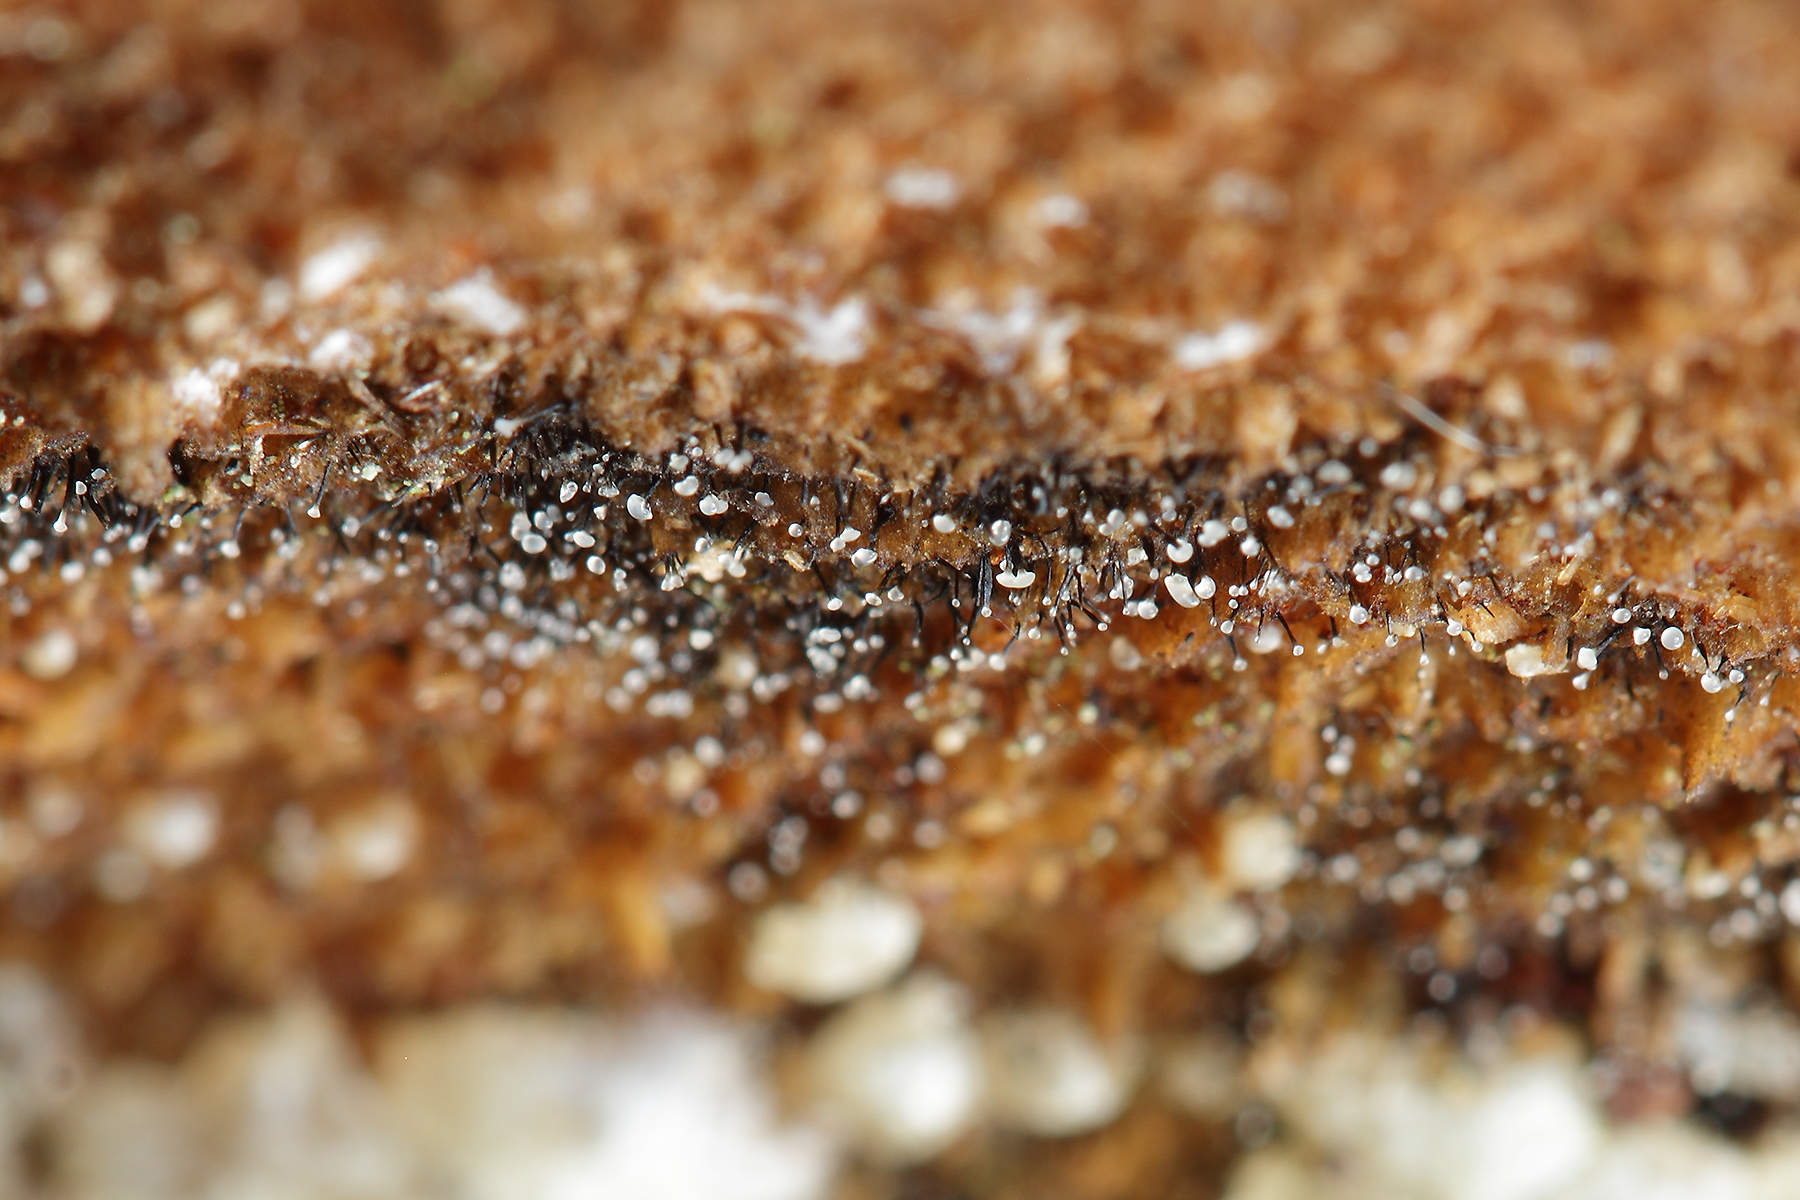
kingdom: Fungi
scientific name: Fungi
